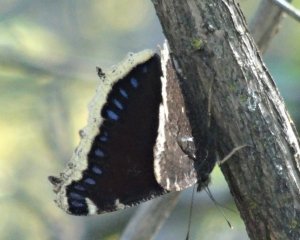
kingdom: Animalia
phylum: Arthropoda
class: Insecta
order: Lepidoptera
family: Nymphalidae
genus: Nymphalis
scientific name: Nymphalis antiopa
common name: Mourning Cloak
